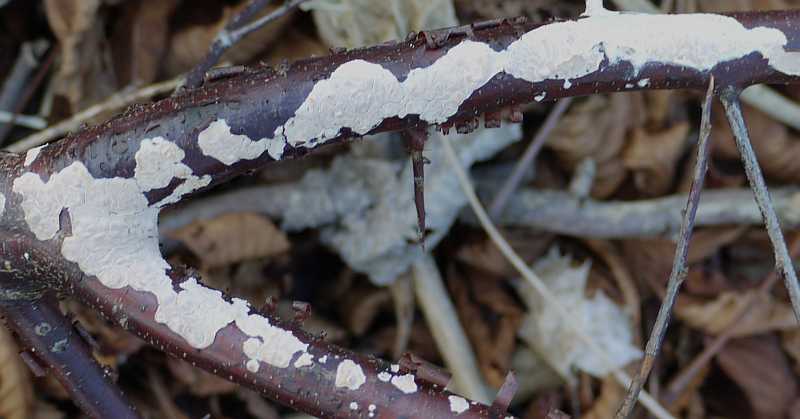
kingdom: Fungi
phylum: Basidiomycota
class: Agaricomycetes
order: Agaricales
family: Physalacriaceae
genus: Cylindrobasidium
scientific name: Cylindrobasidium evolvens
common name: sprækkehinde
